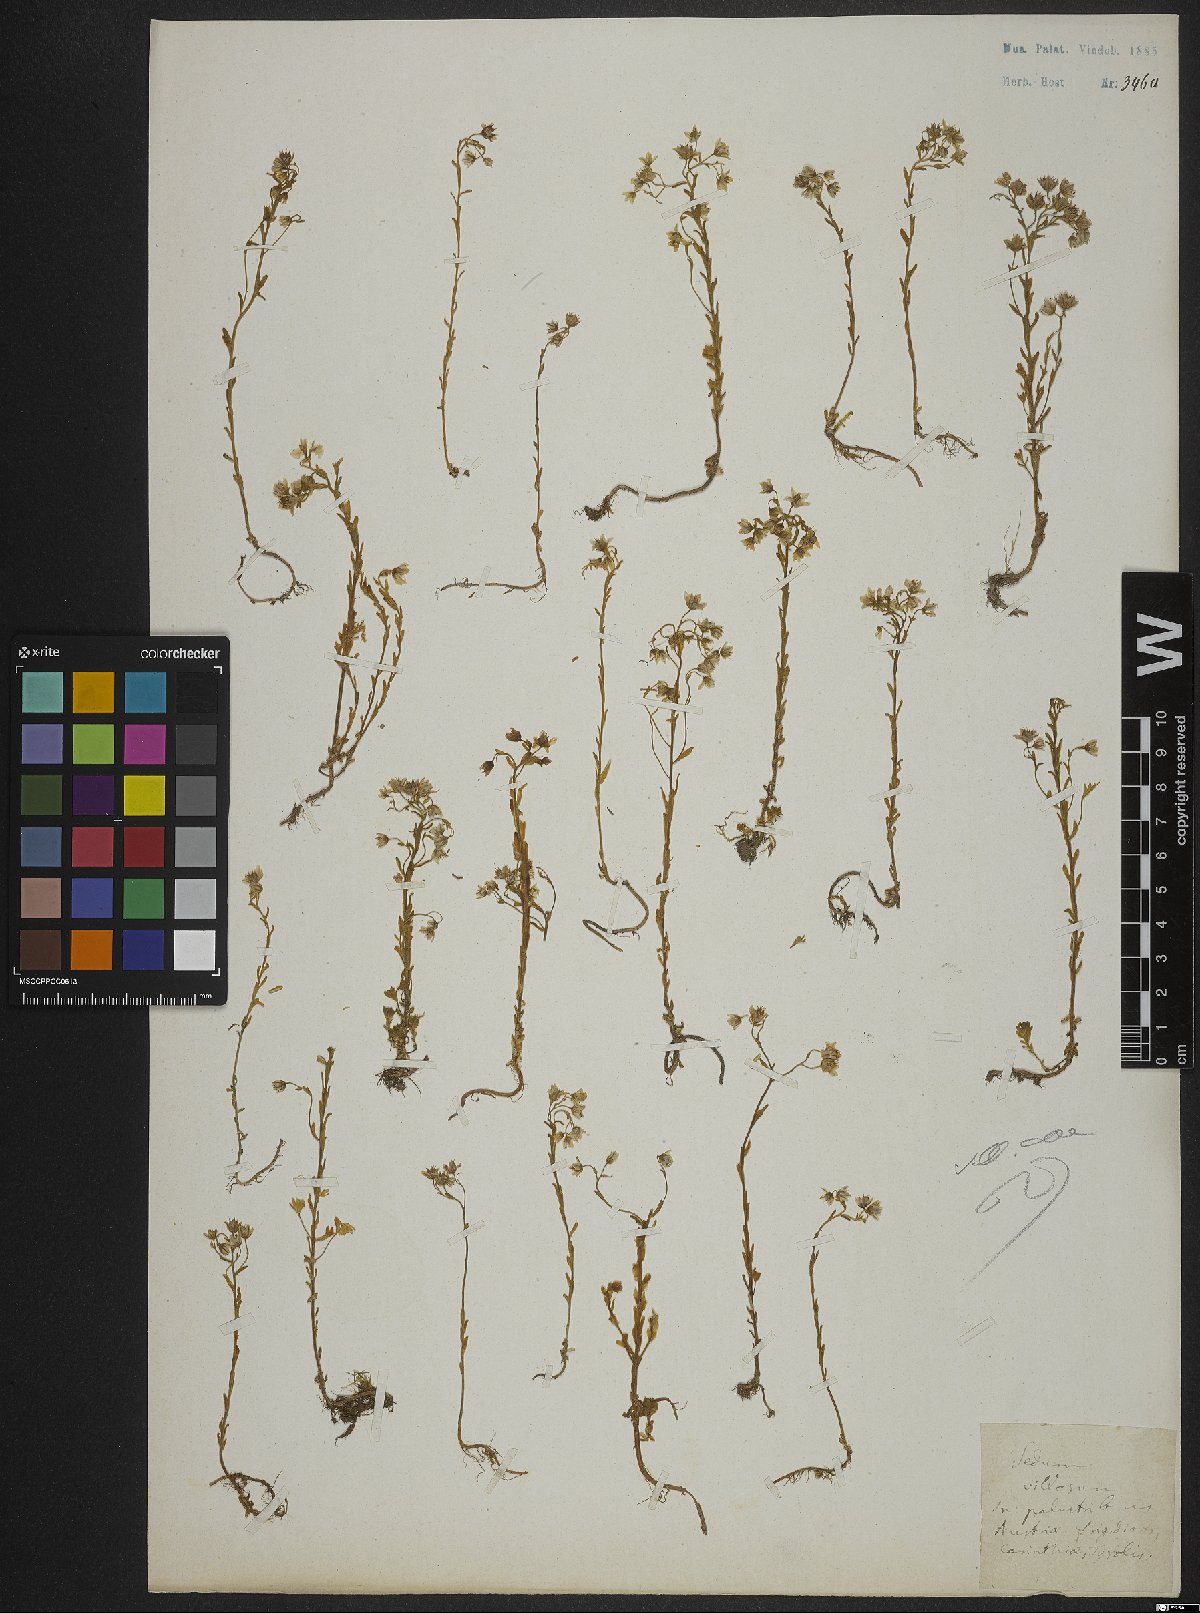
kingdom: Plantae
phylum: Tracheophyta
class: Magnoliopsida
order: Saxifragales
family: Crassulaceae
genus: Sedum
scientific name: Sedum villosum
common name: Hairy stonecrop
